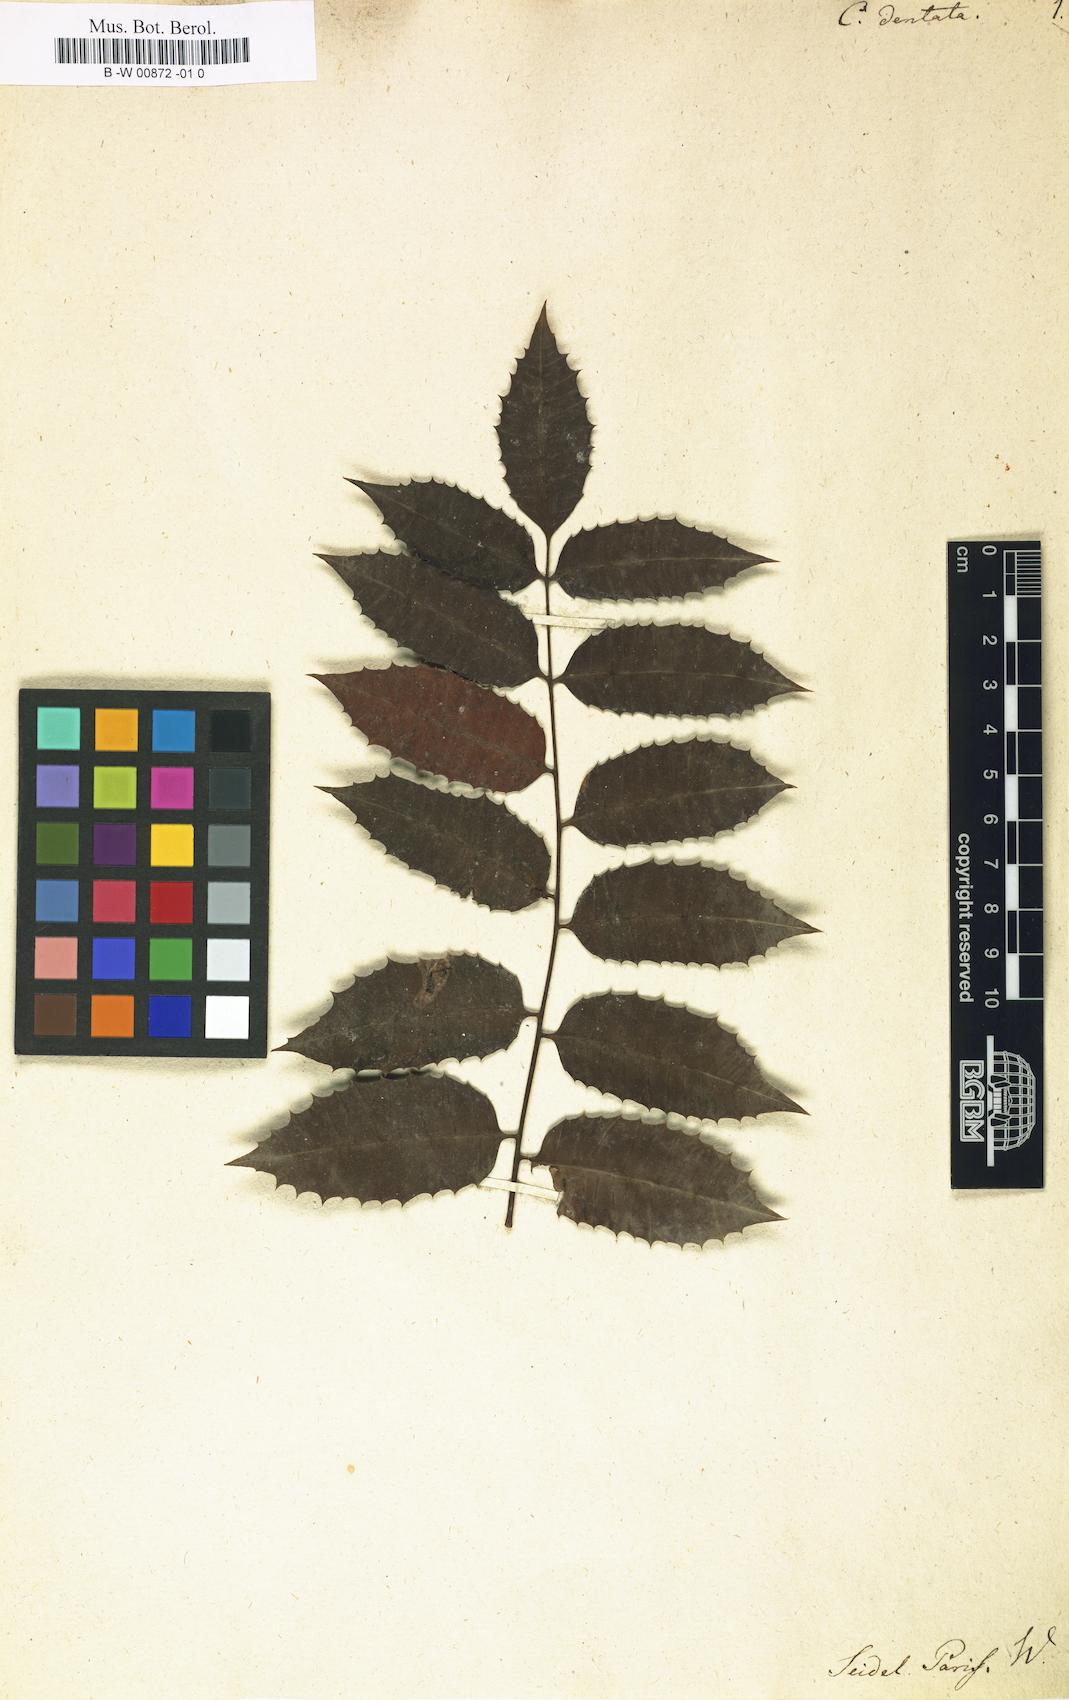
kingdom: Plantae
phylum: Tracheophyta
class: Magnoliopsida
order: Sapindales
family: Anacardiaceae
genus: Comocladia
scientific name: Comocladia dentata
